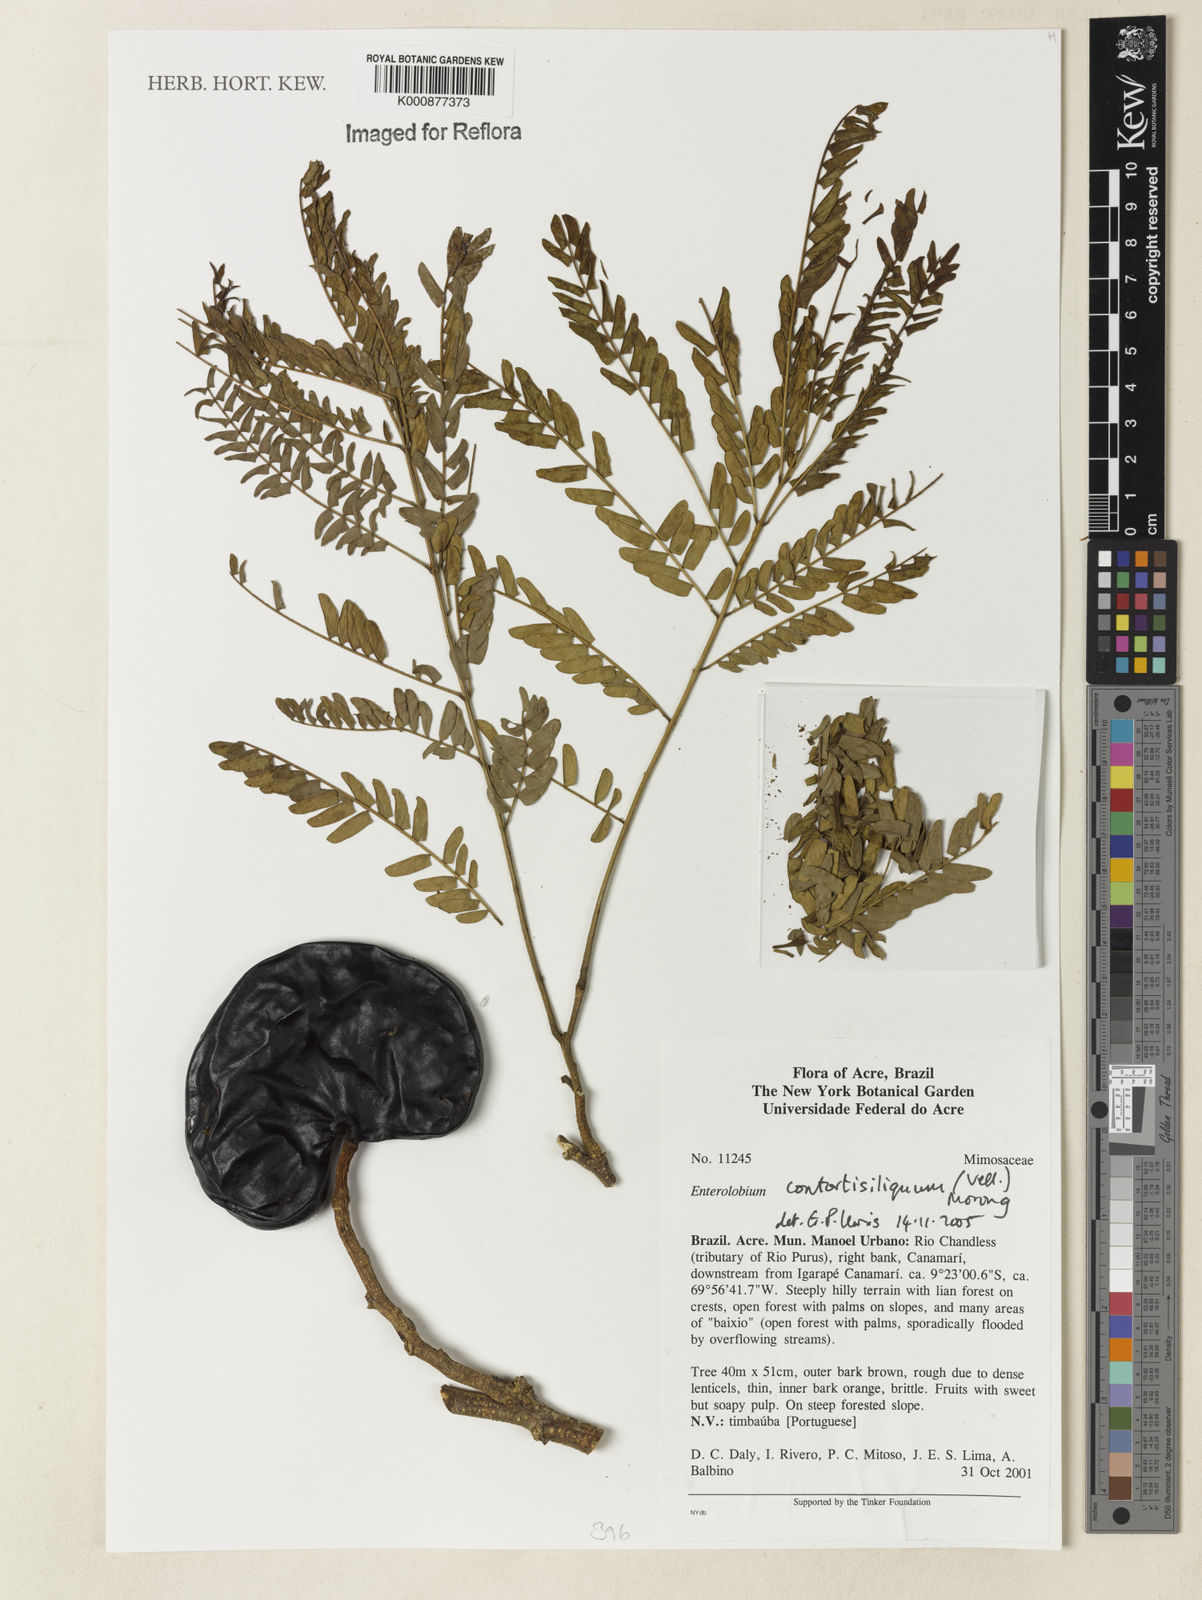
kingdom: Plantae
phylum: Tracheophyta
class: Magnoliopsida
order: Fabales
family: Fabaceae
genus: Enterolobium
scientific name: Enterolobium contortisiliquum
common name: Pacara earpod tree
